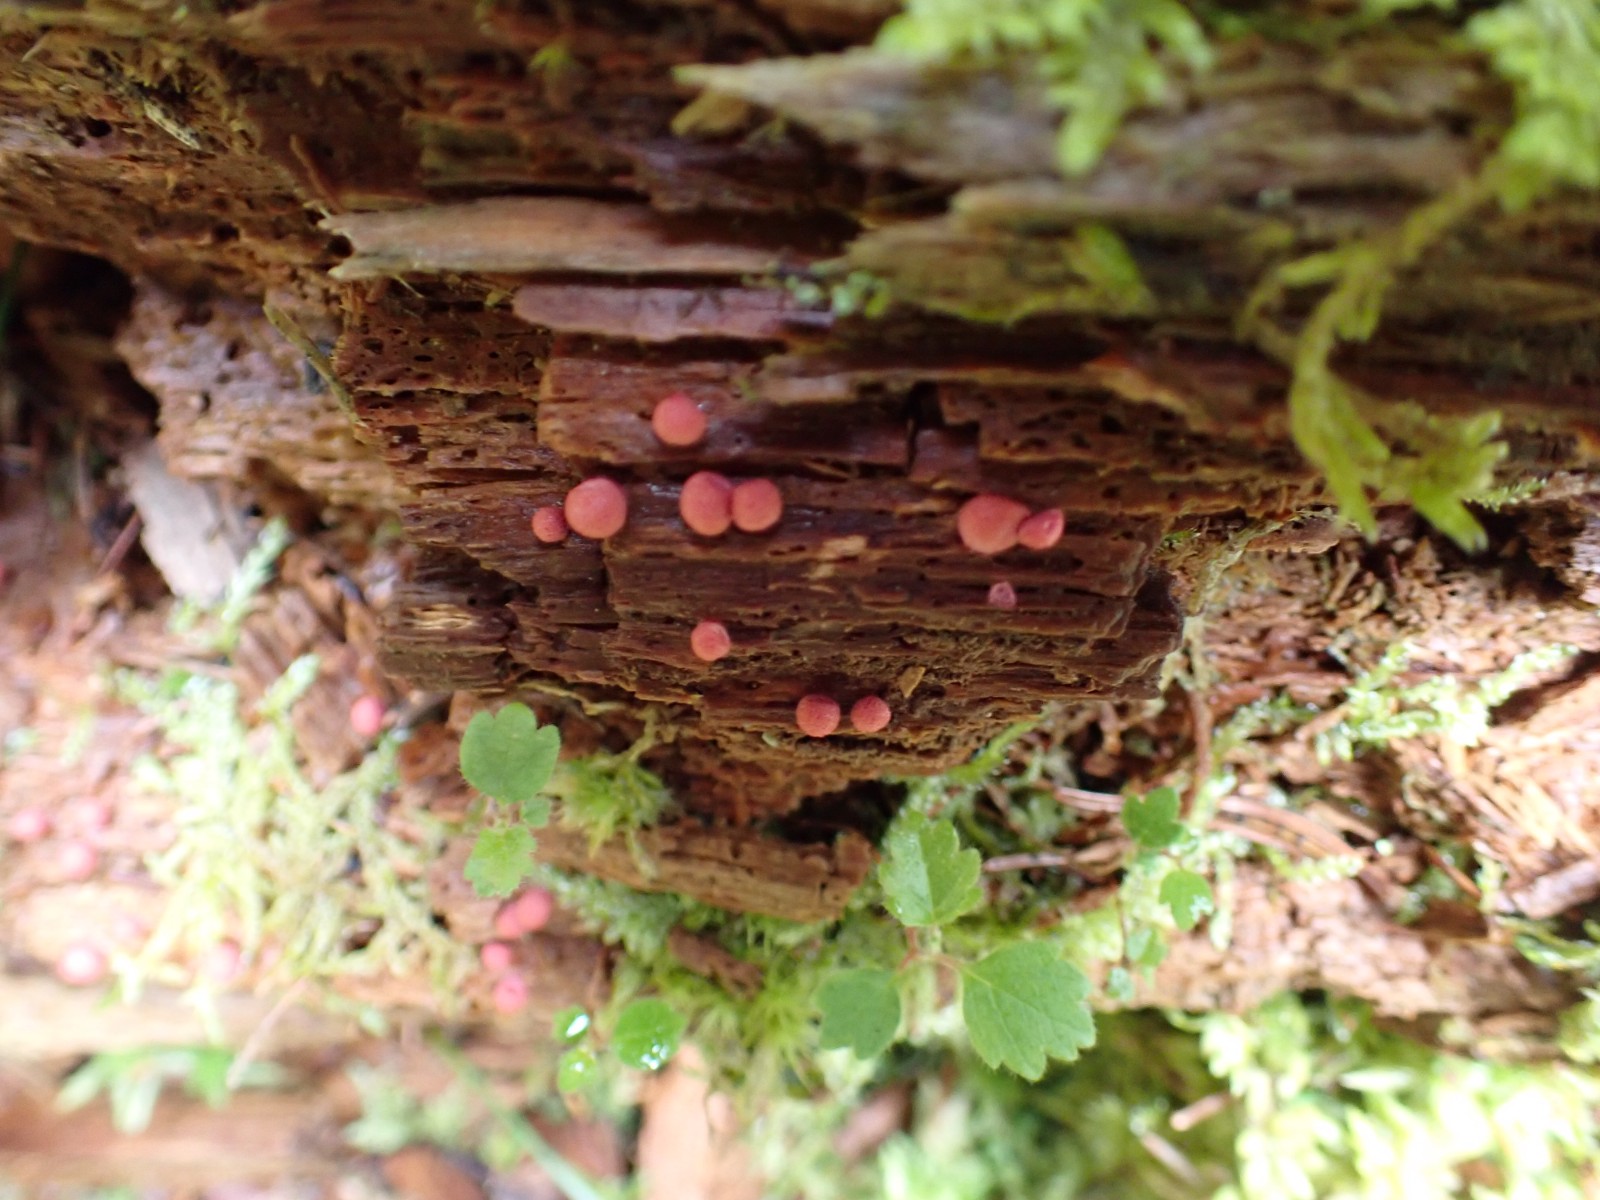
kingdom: Protozoa
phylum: Mycetozoa
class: Myxomycetes
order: Cribrariales
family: Tubiferaceae
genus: Lycogala
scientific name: Lycogala epidendrum
